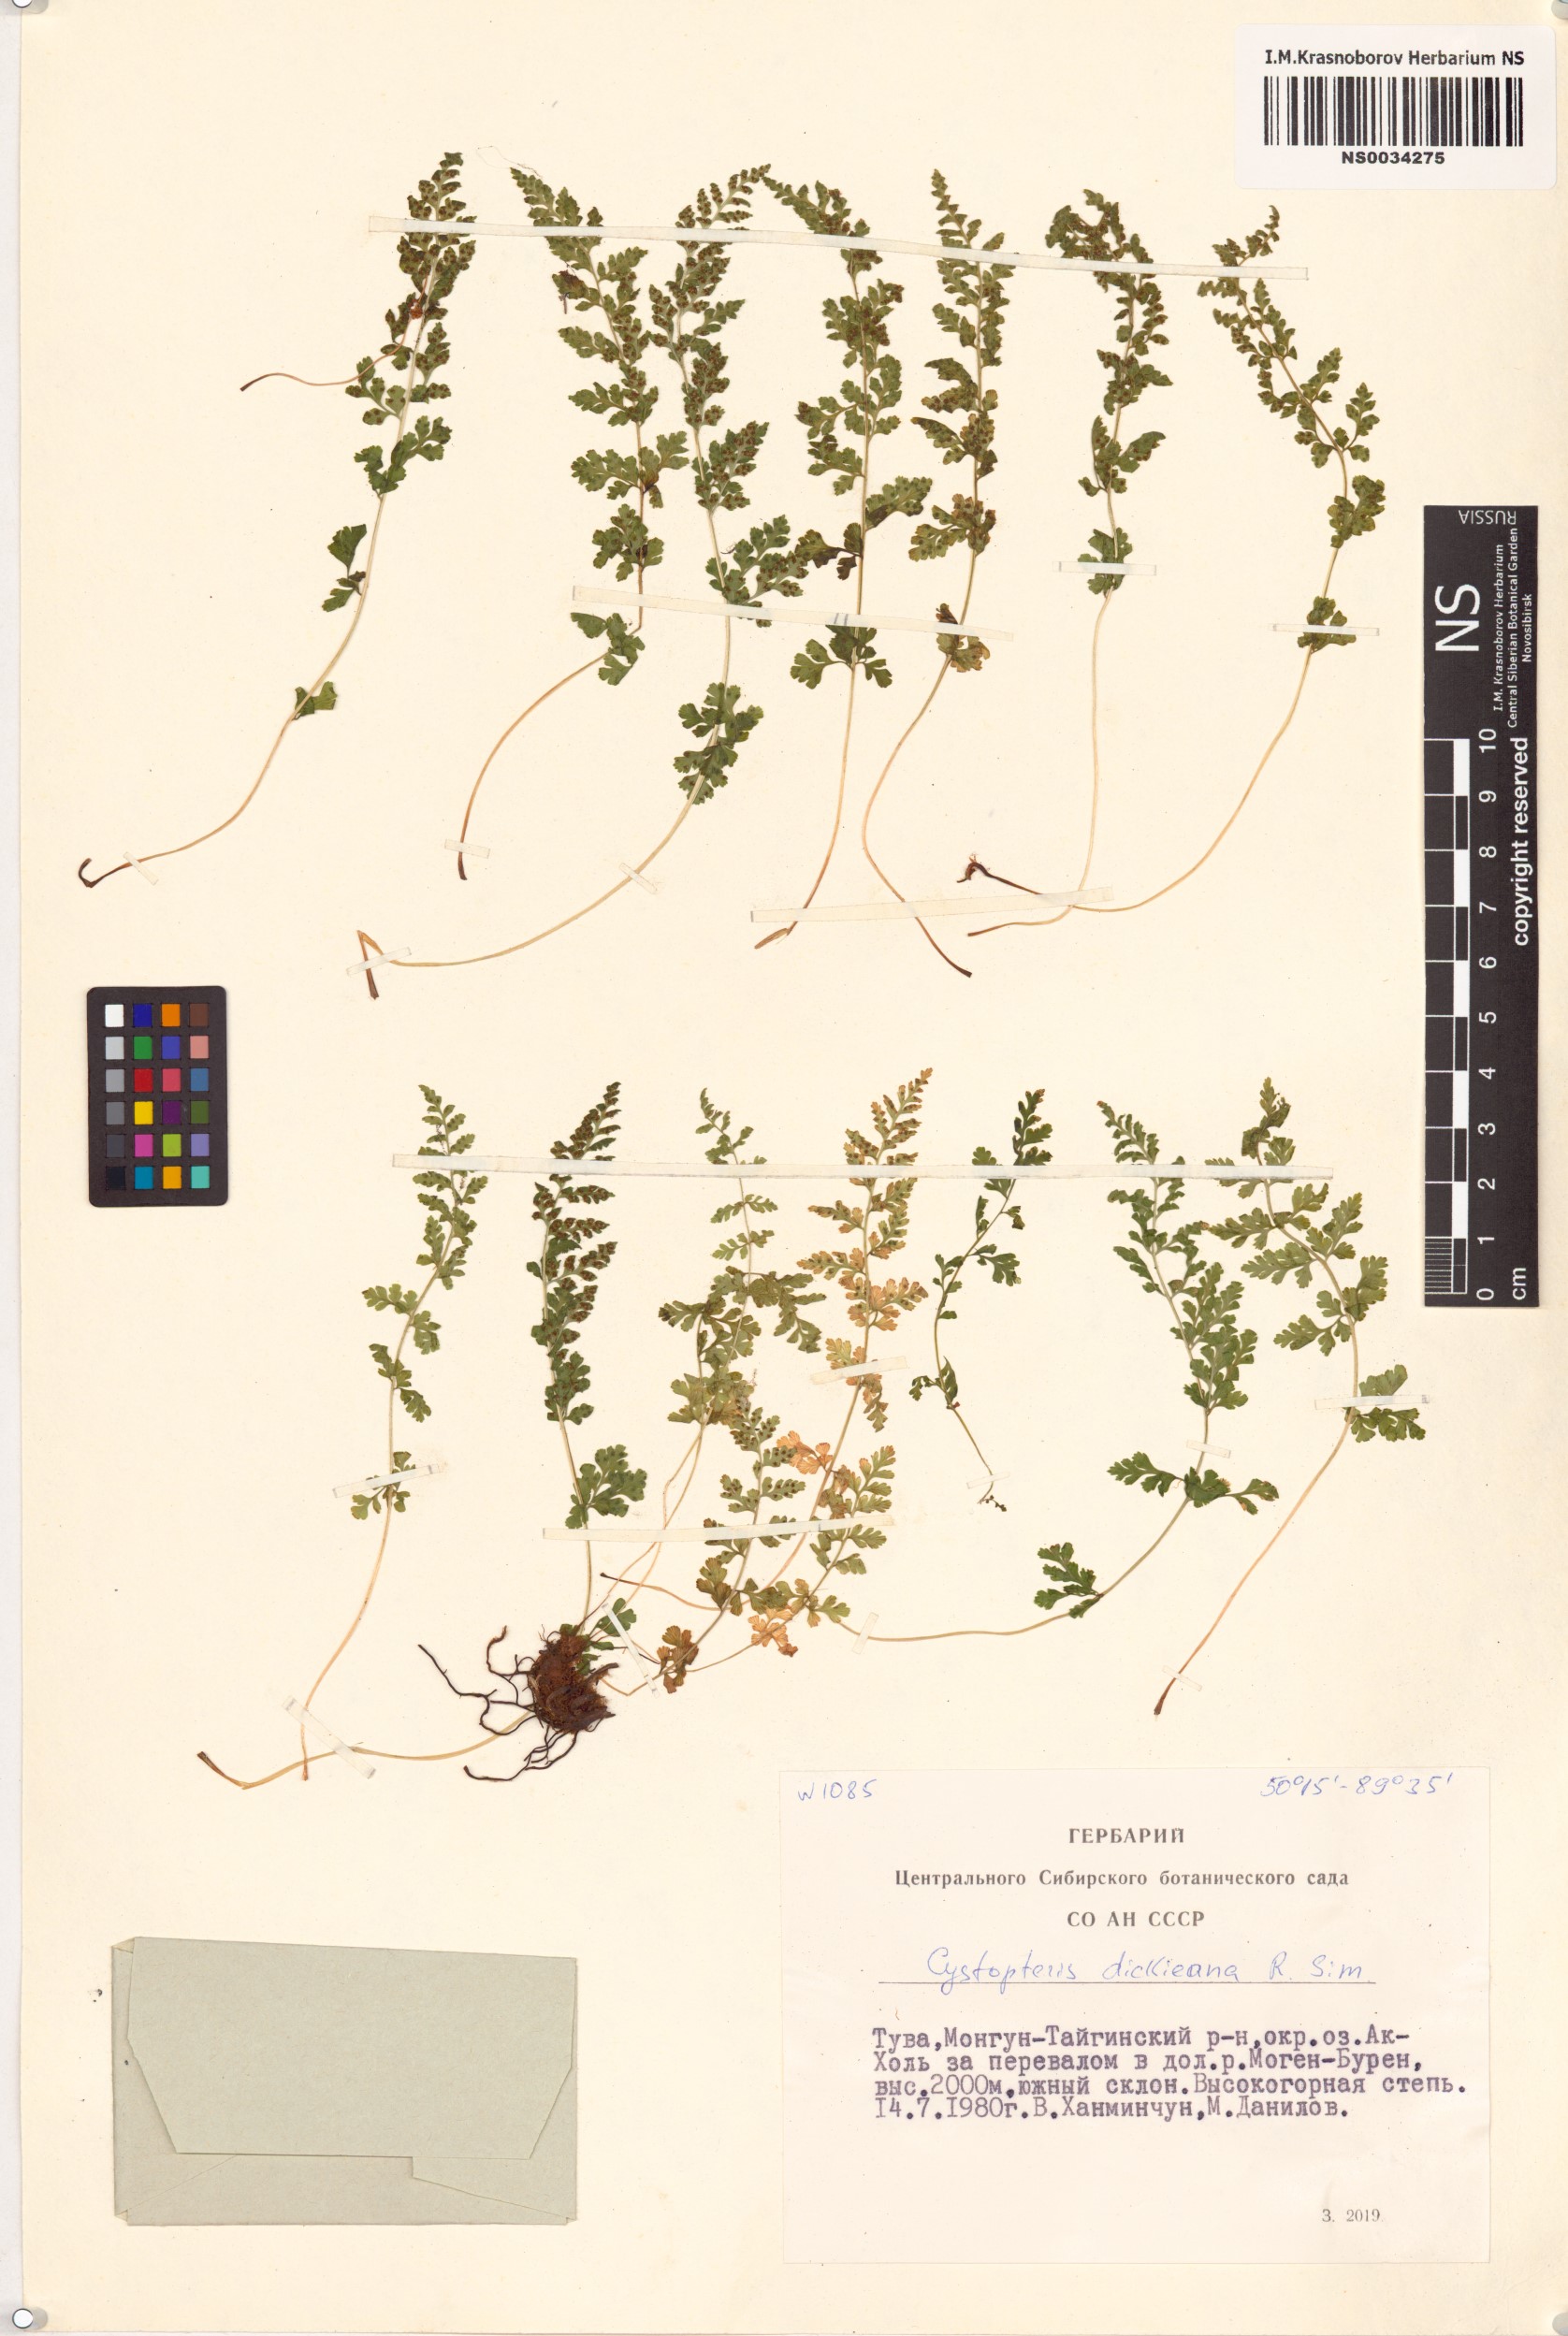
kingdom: Plantae
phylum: Tracheophyta
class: Polypodiopsida
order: Polypodiales
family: Cystopteridaceae
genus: Cystopteris
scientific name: Cystopteris dickieana
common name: Dickie's bladder-fern
